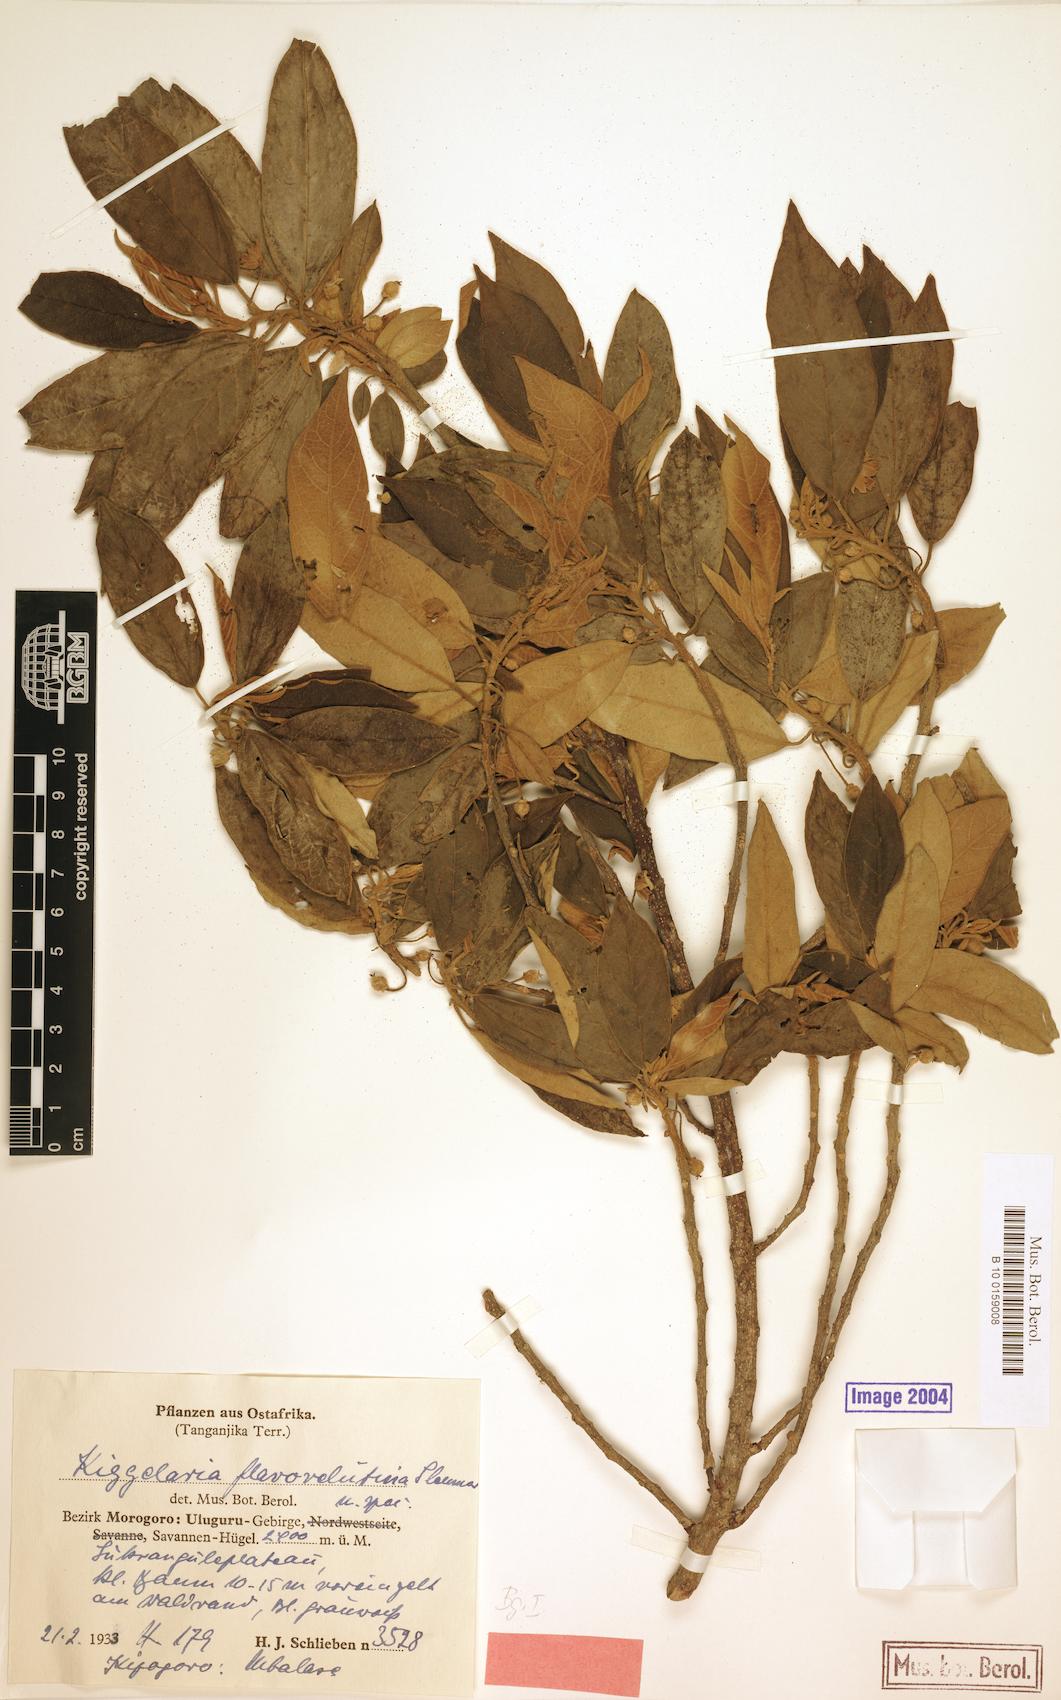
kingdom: Plantae
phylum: Tracheophyta
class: Magnoliopsida
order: Malpighiales
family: Achariaceae
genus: Kiggelaria
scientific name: Kiggelaria africana
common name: Wild peach
